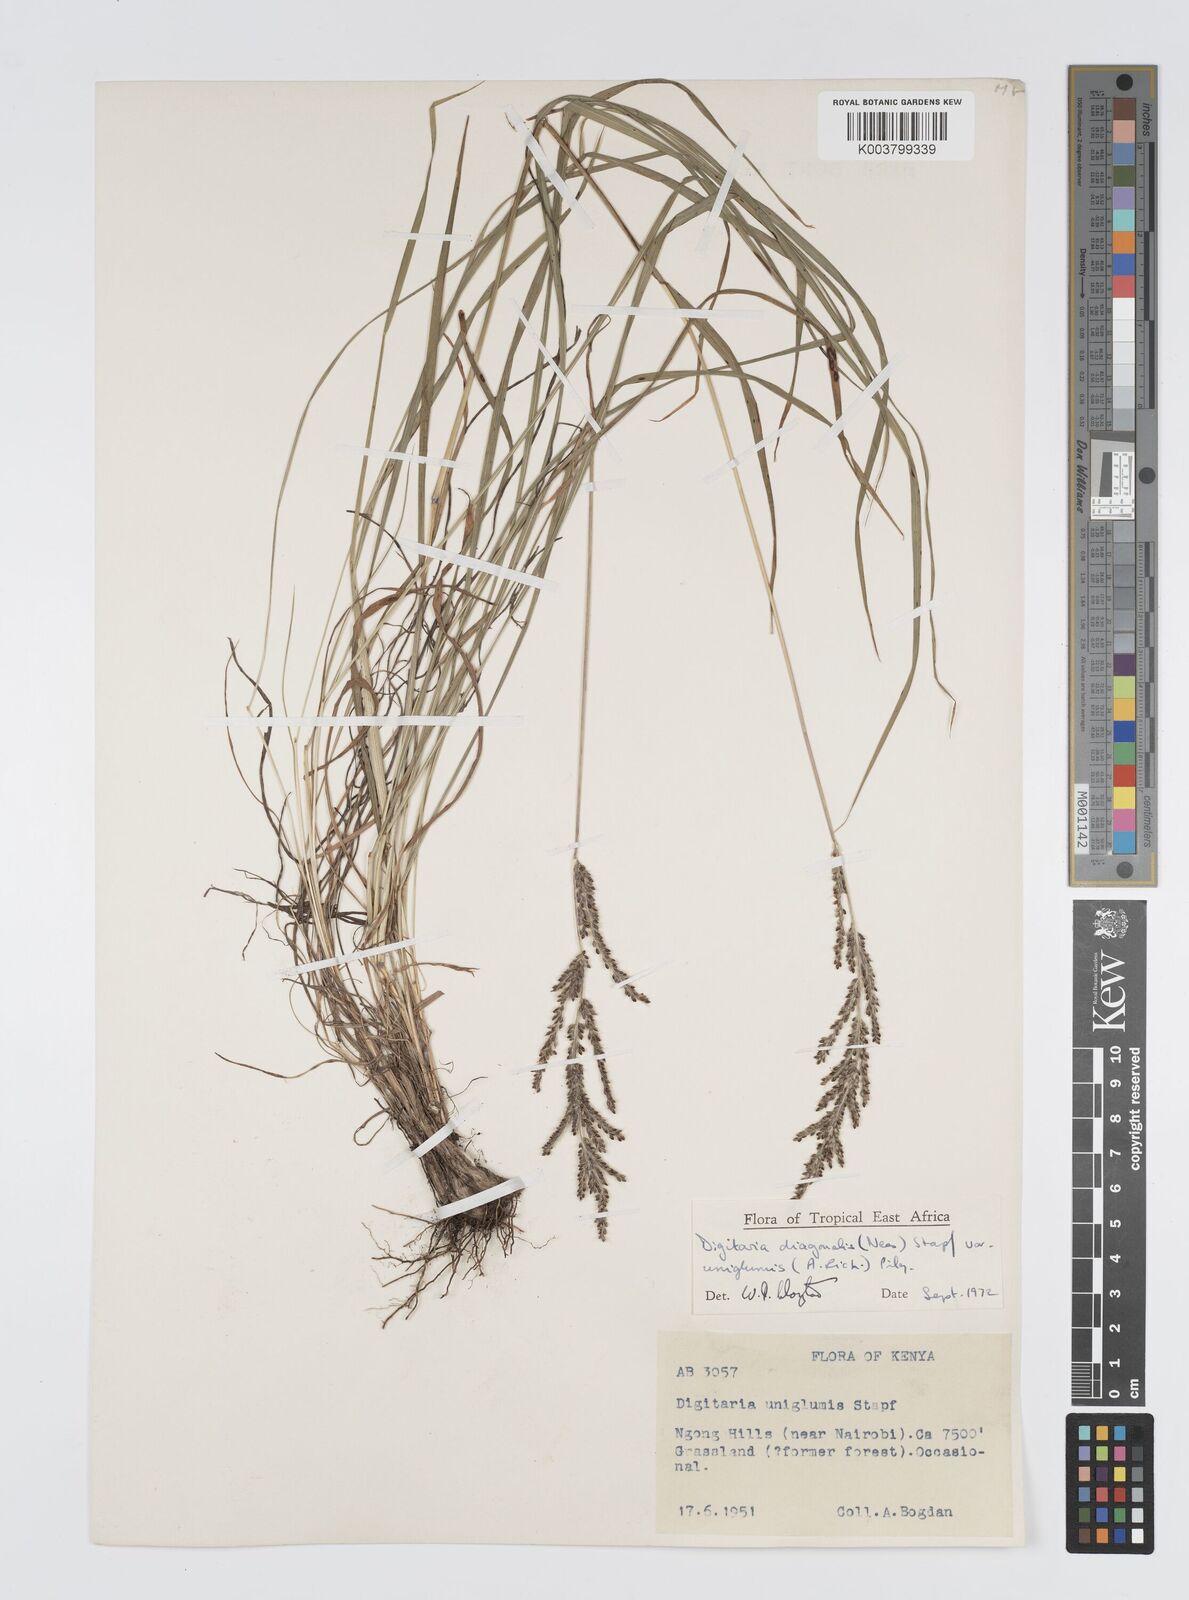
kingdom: Plantae
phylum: Tracheophyta
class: Liliopsida
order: Poales
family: Poaceae
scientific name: Poaceae
